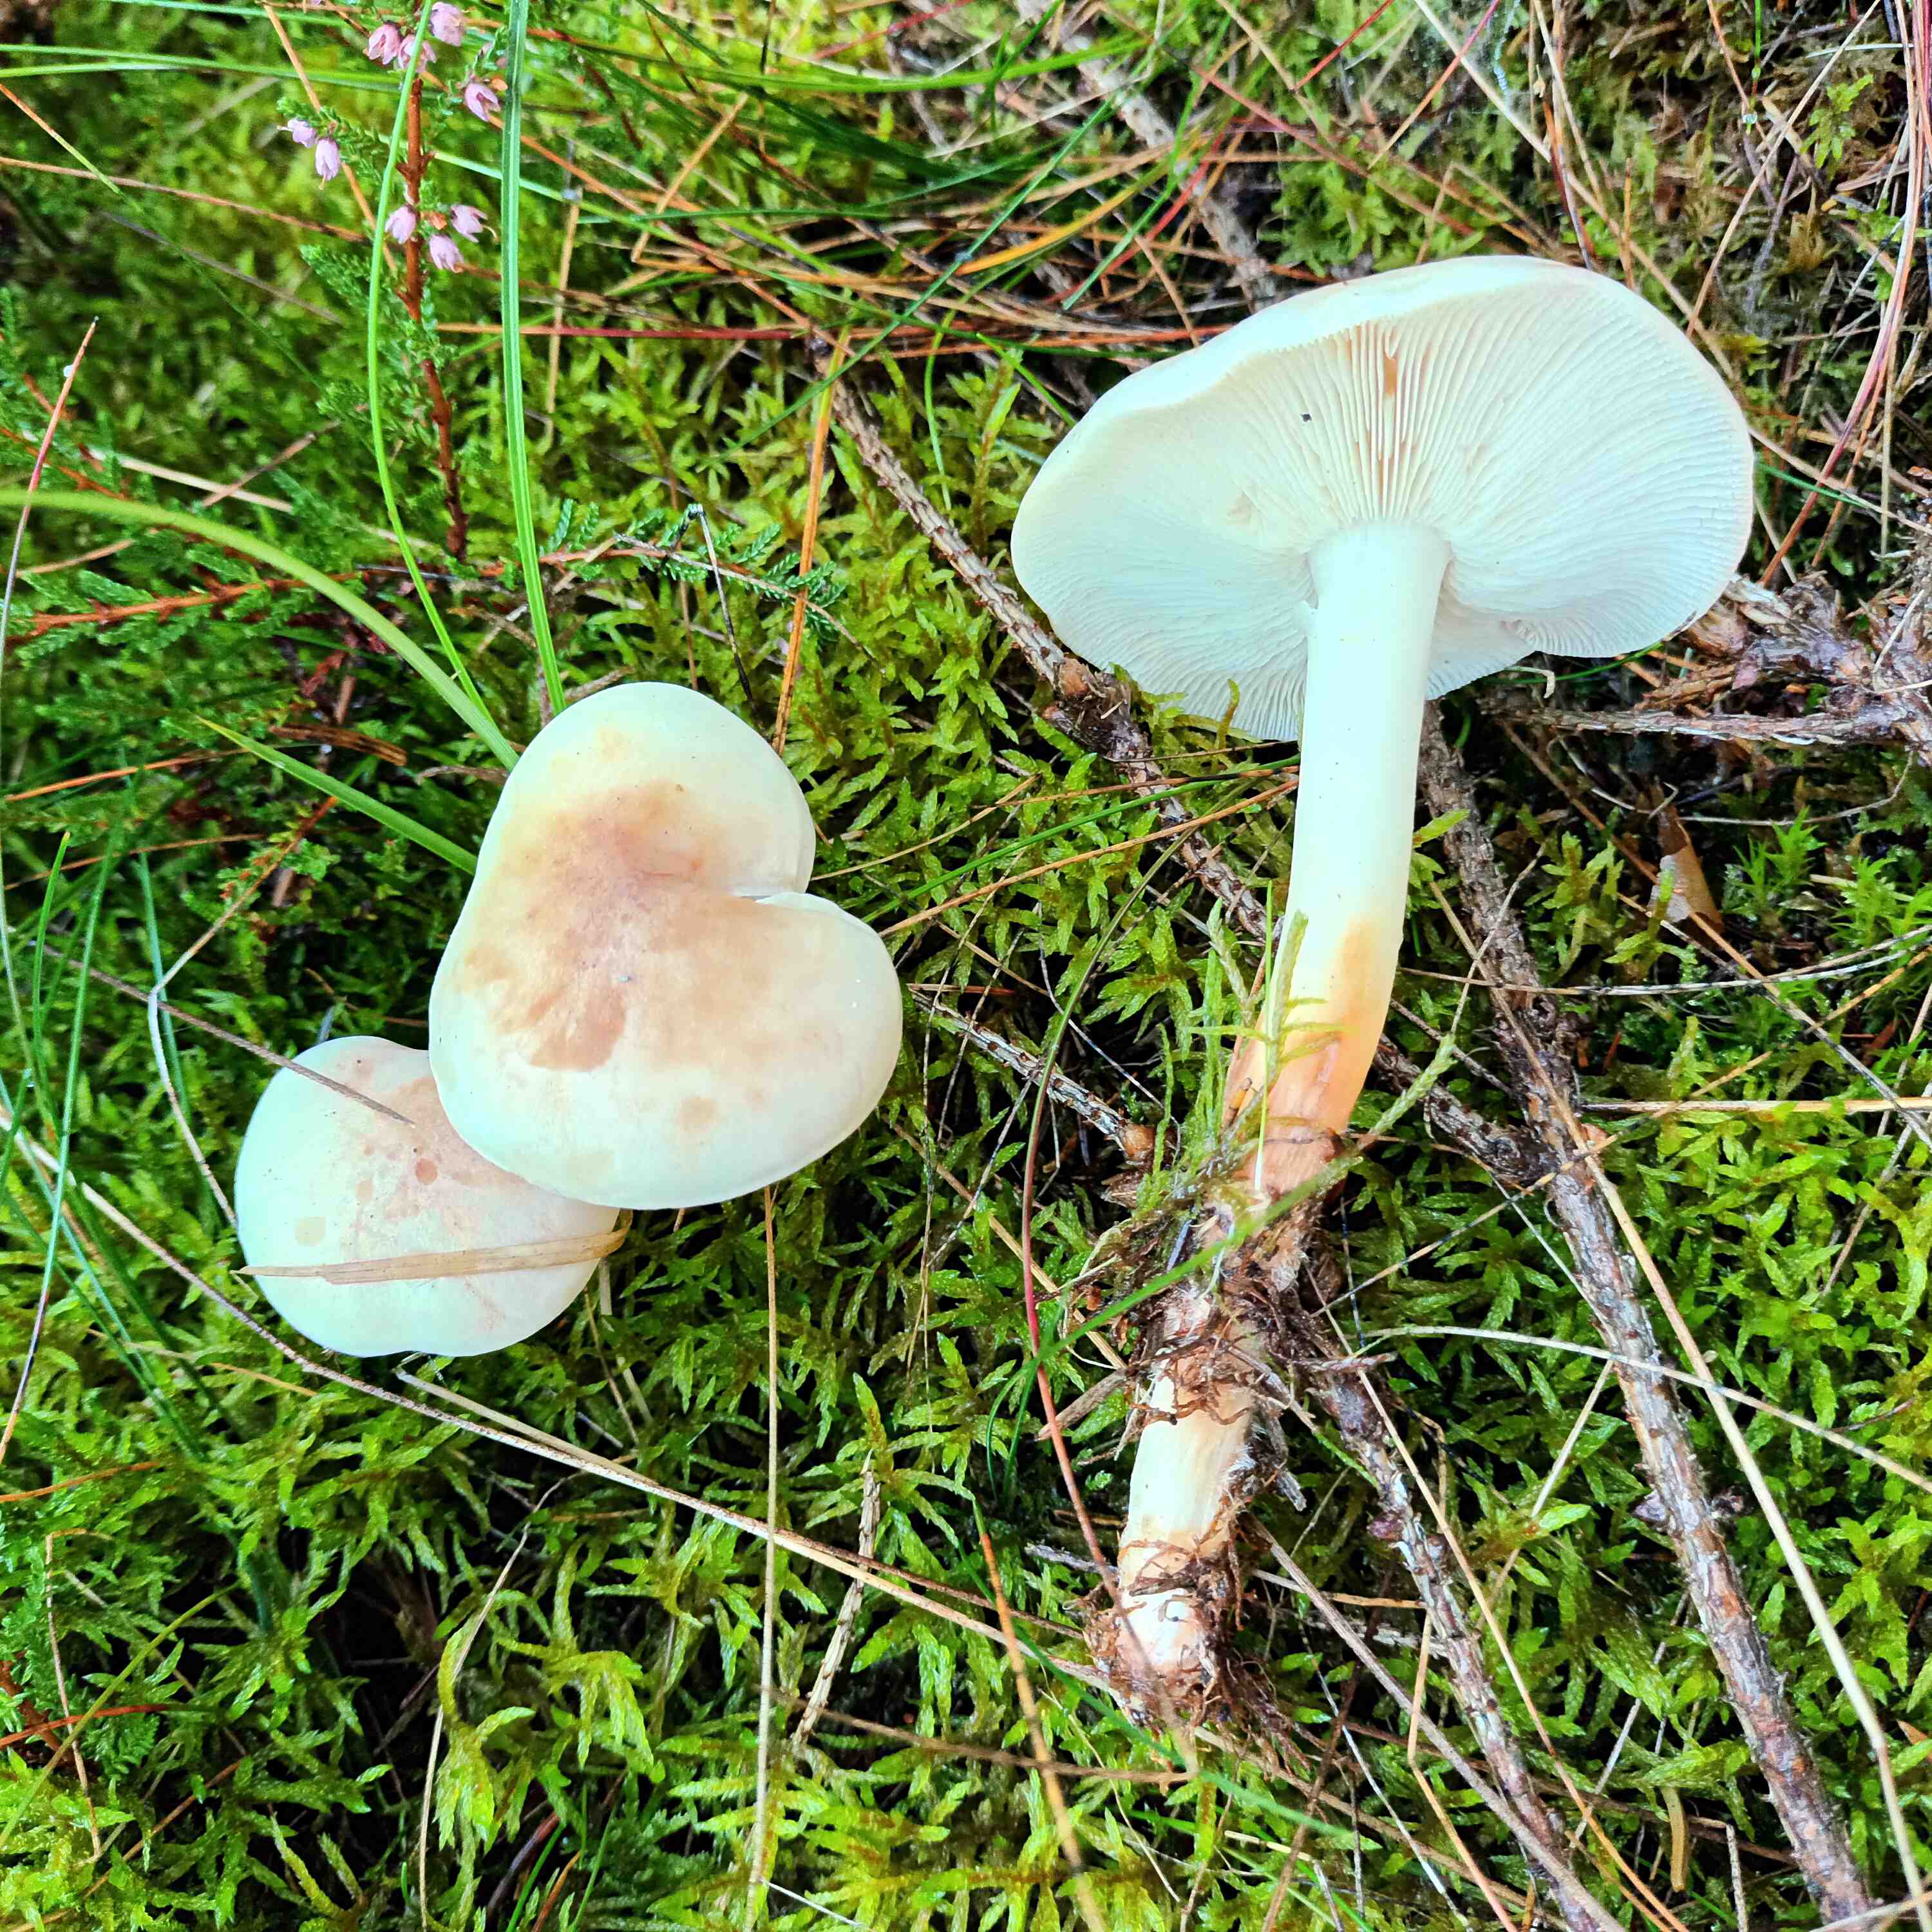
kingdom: Fungi
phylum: Basidiomycota
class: Agaricomycetes
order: Agaricales
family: Omphalotaceae
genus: Rhodocollybia
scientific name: Rhodocollybia maculata
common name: plettet fladhat
